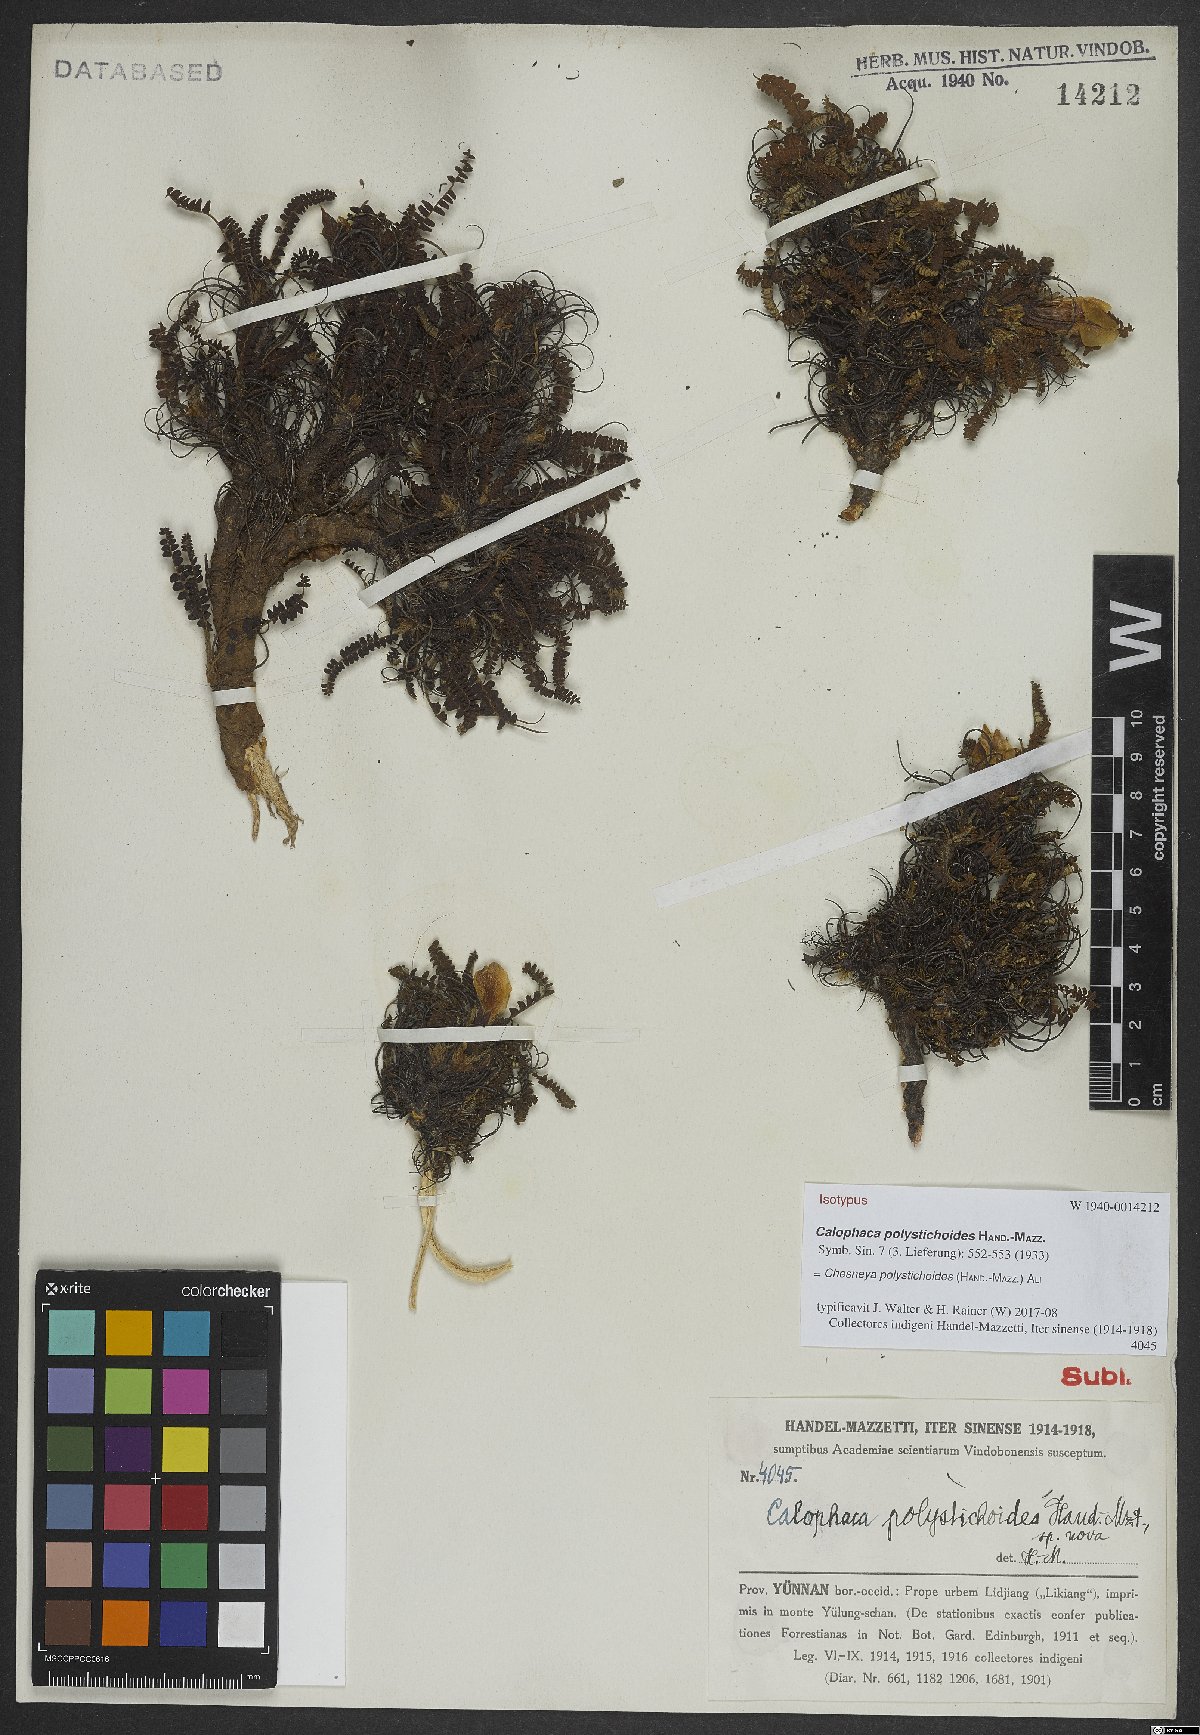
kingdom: Plantae
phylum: Tracheophyta
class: Magnoliopsida
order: Fabales
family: Fabaceae
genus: Chesneya
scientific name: Chesneya polystichoides
